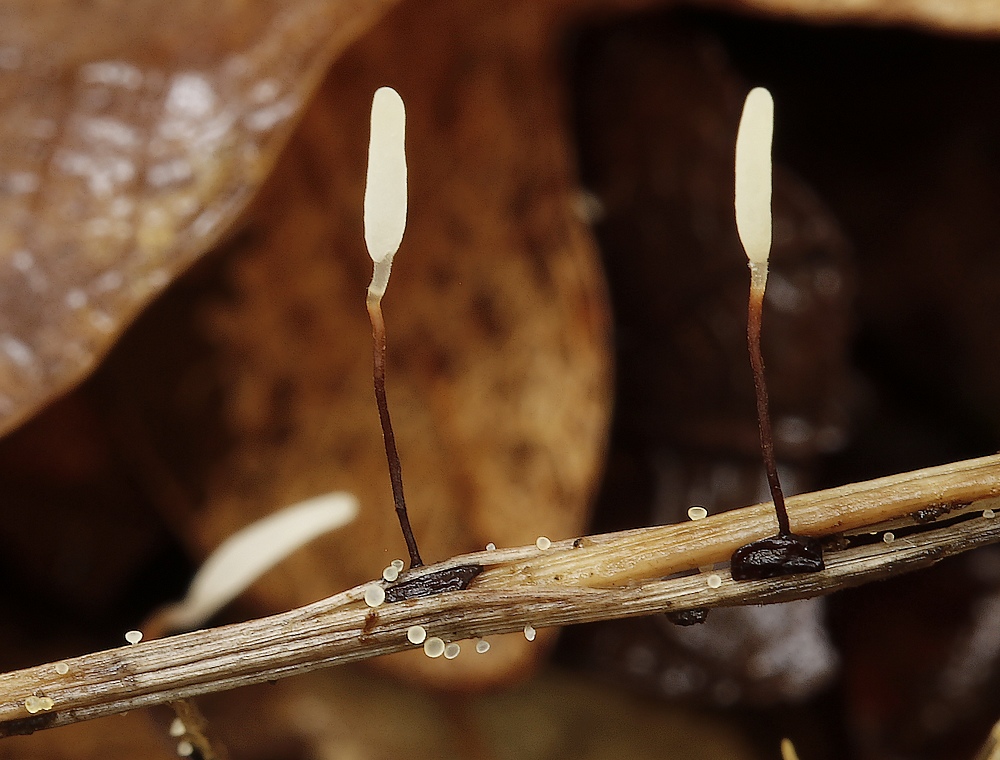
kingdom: Fungi
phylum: Basidiomycota
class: Agaricomycetes
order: Agaricales
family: Typhulaceae
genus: Typhula
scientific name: Typhula erythropus
